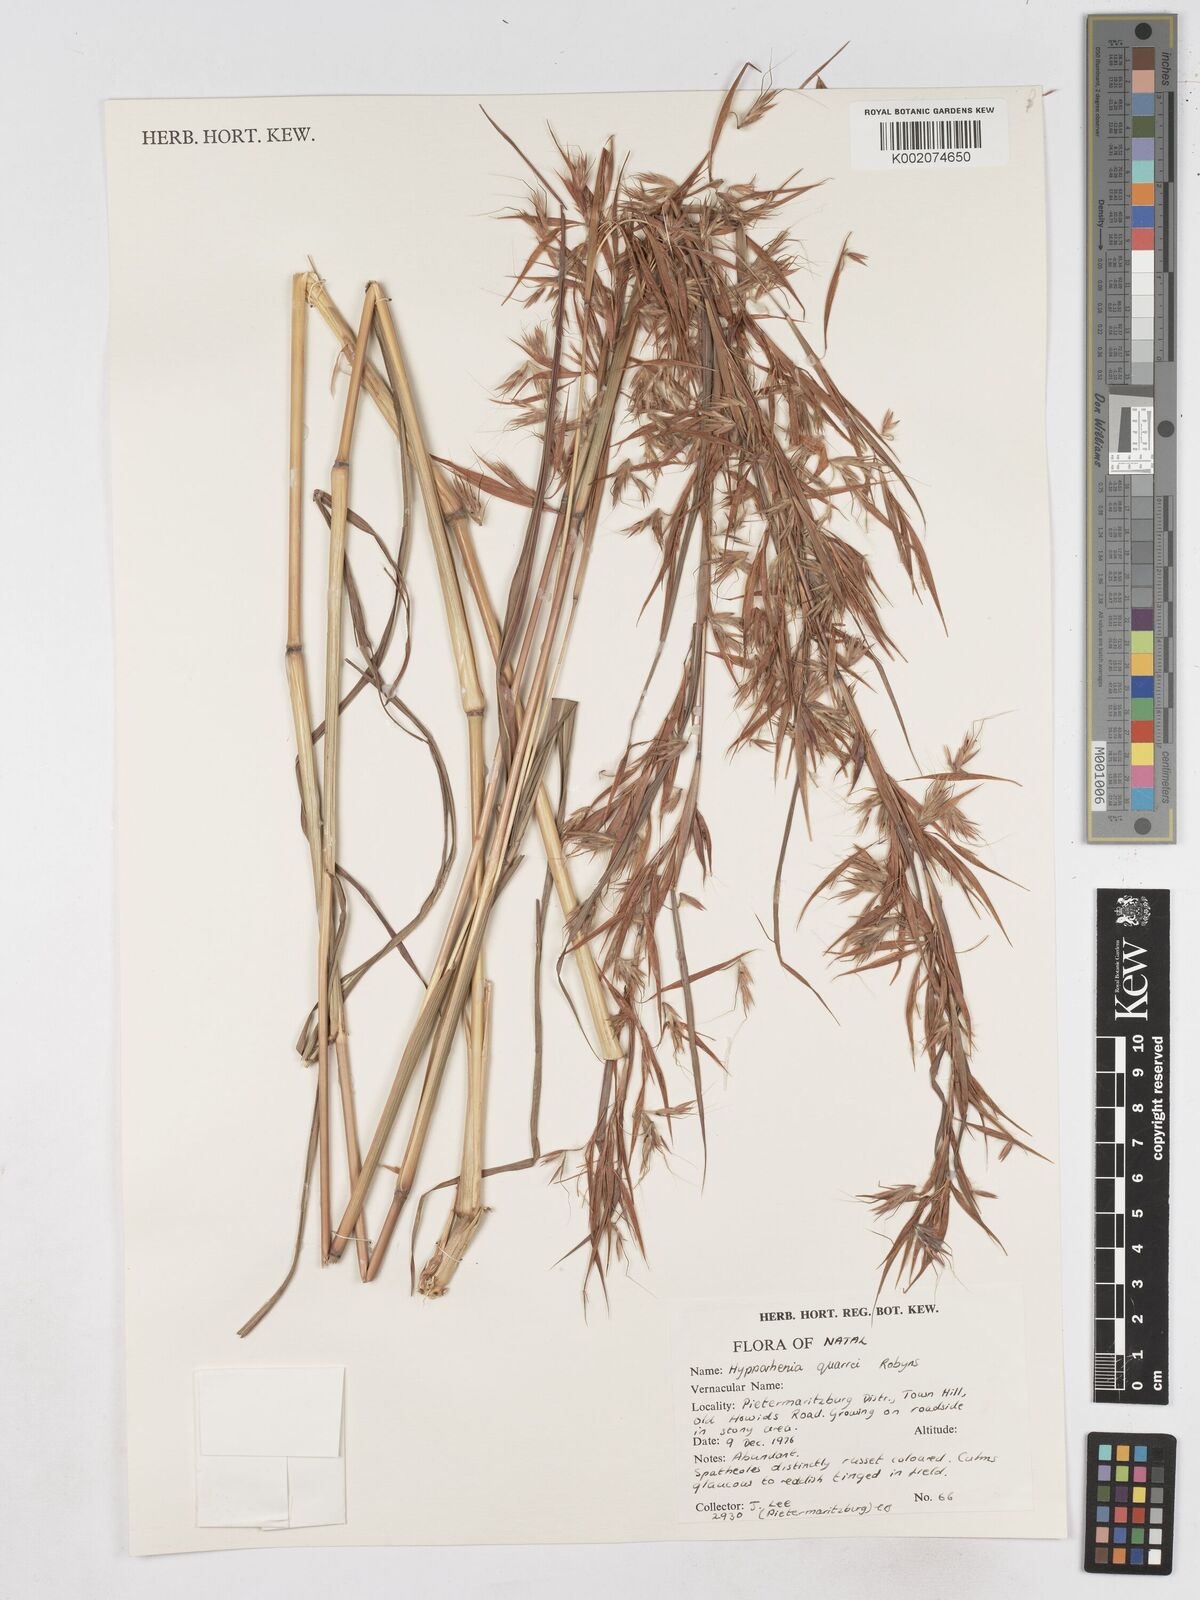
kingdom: Plantae
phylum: Tracheophyta
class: Liliopsida
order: Poales
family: Poaceae
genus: Hyparrhenia
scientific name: Hyparrhenia quarrei
